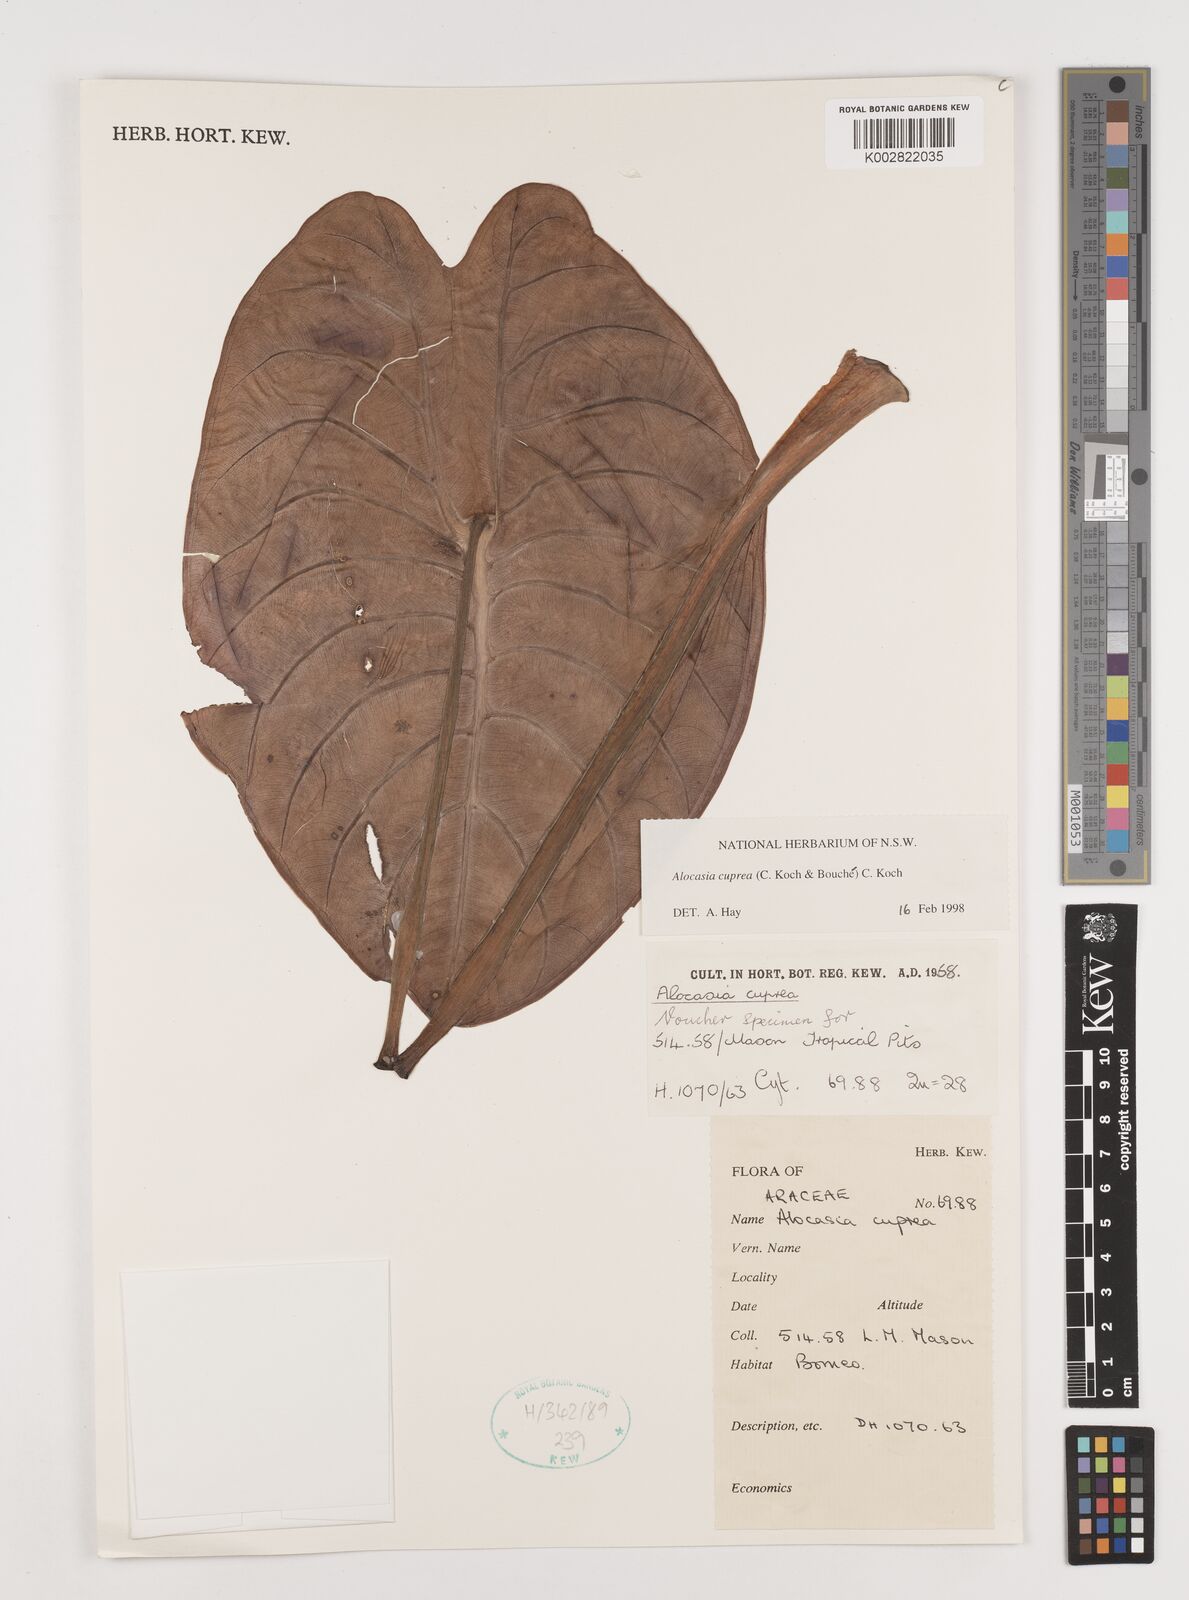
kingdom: Plantae
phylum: Tracheophyta
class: Liliopsida
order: Alismatales
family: Araceae
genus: Alocasia
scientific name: Alocasia
